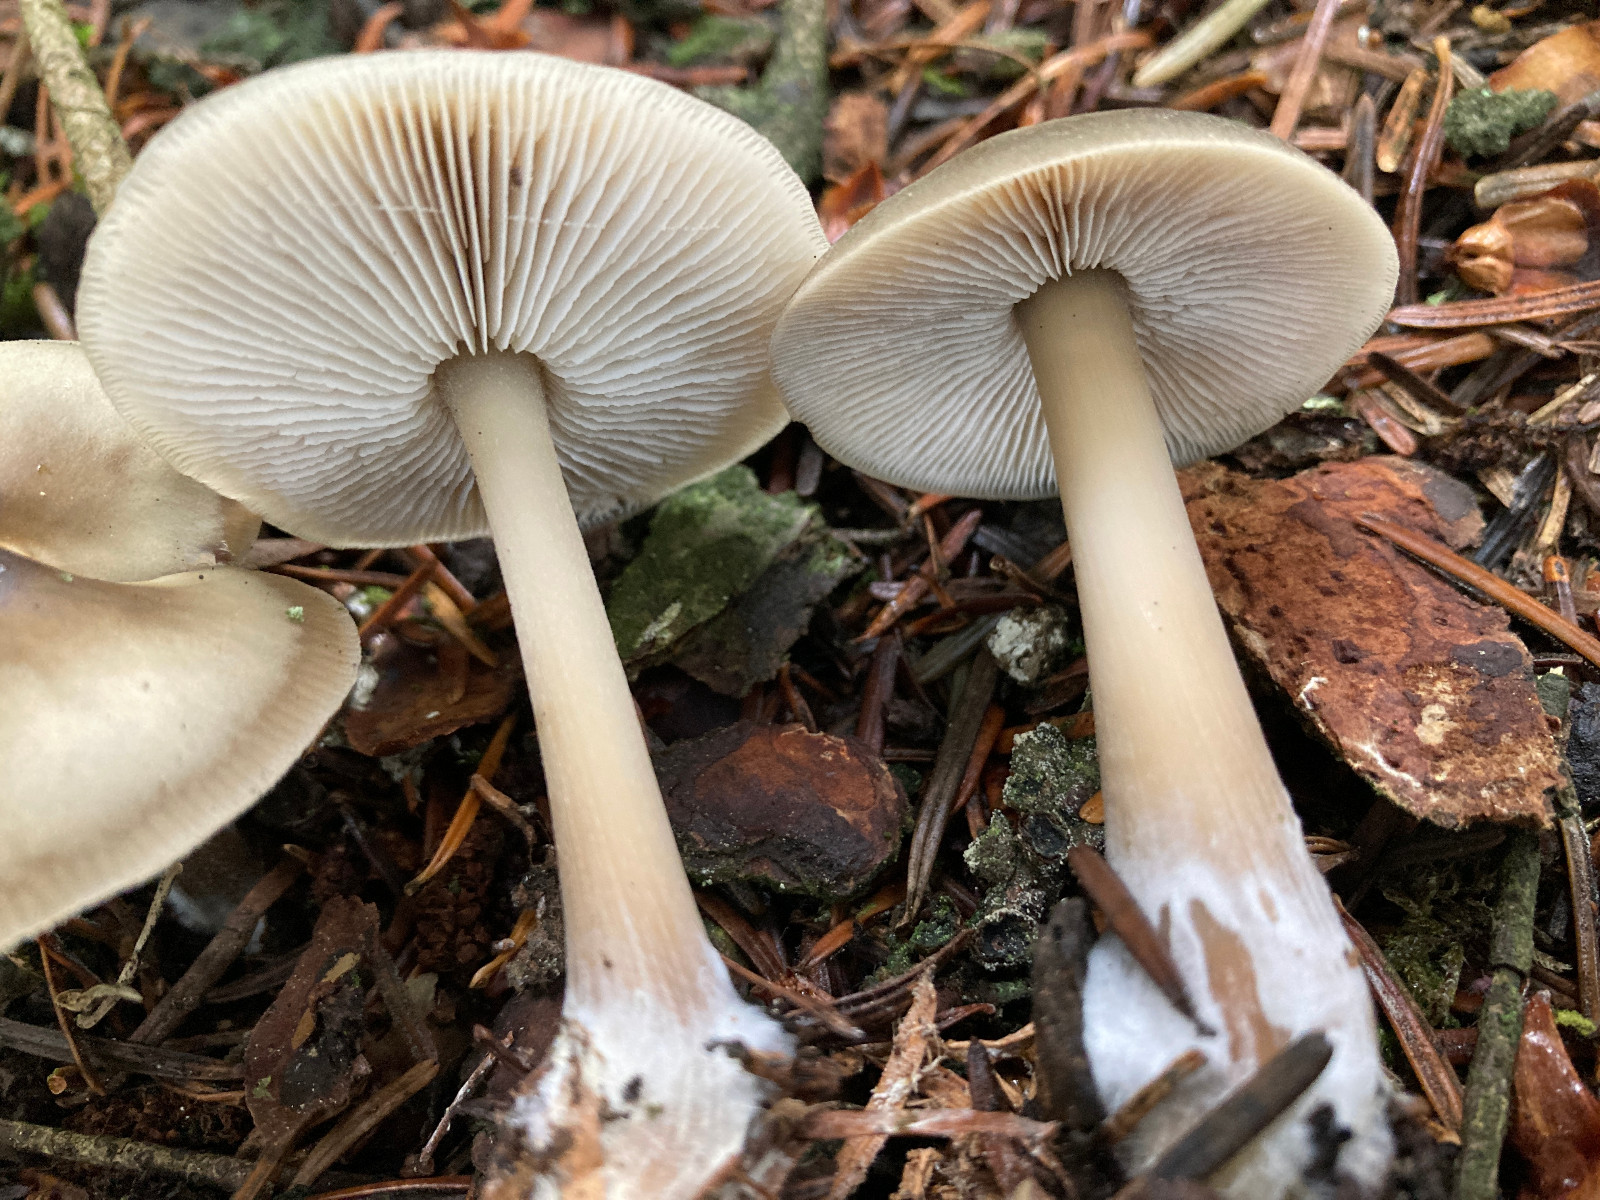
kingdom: Fungi
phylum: Basidiomycota
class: Agaricomycetes
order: Agaricales
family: Omphalotaceae
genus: Rhodocollybia
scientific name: Rhodocollybia asema
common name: horngrå fladhat
